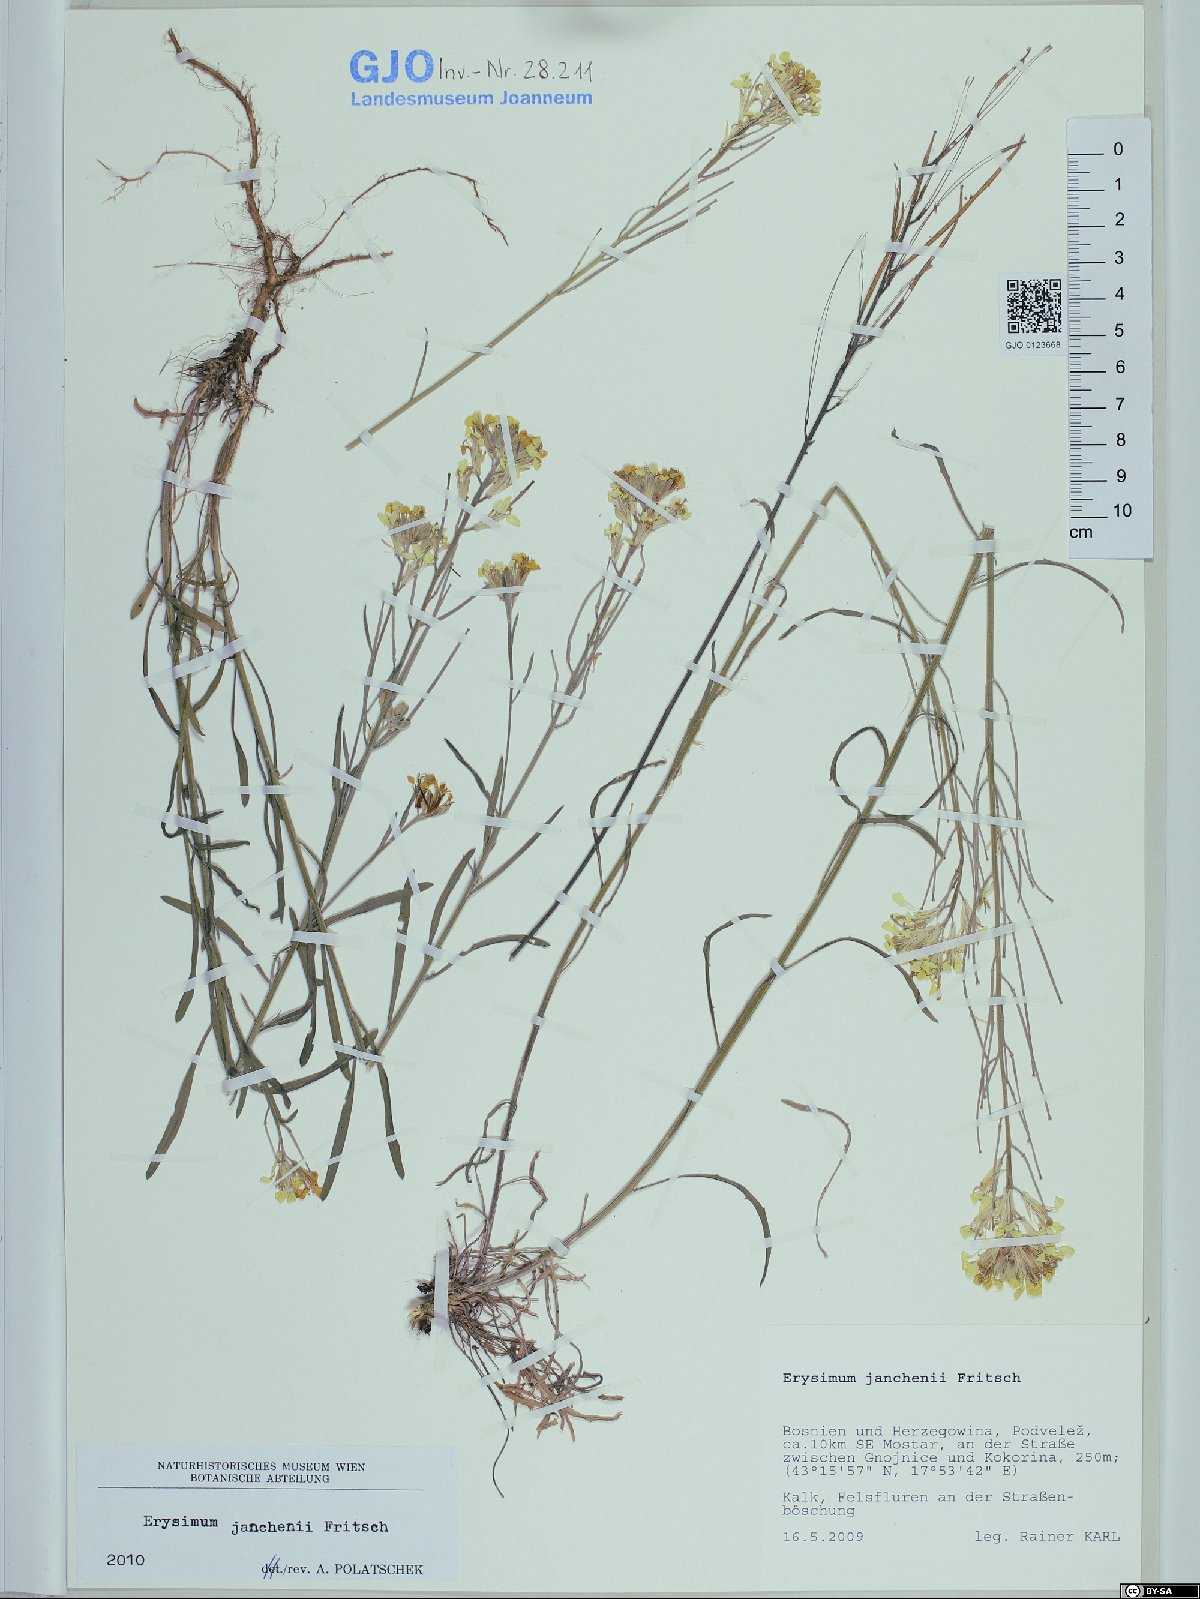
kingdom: Plantae
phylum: Tracheophyta
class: Magnoliopsida
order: Brassicales
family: Brassicaceae
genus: Erysimum
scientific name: Erysimum linariifolium
